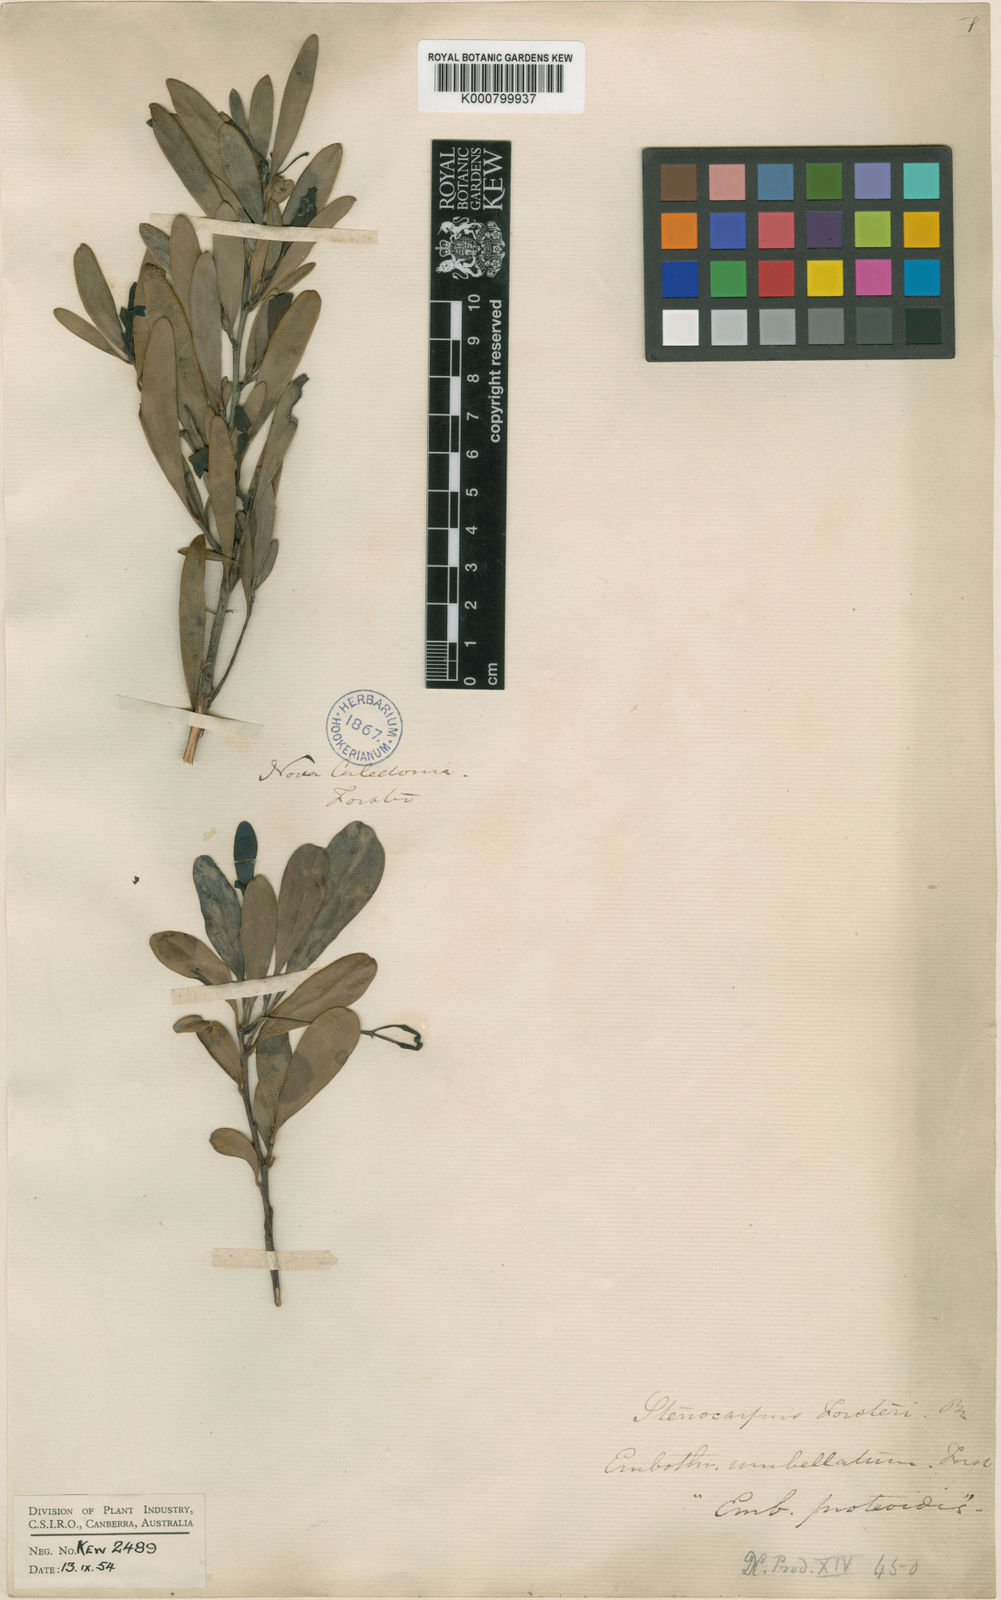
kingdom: Plantae
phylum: Tracheophyta
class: Magnoliopsida
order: Proteales
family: Proteaceae
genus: Stenocarpus
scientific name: Stenocarpus umbellifer
